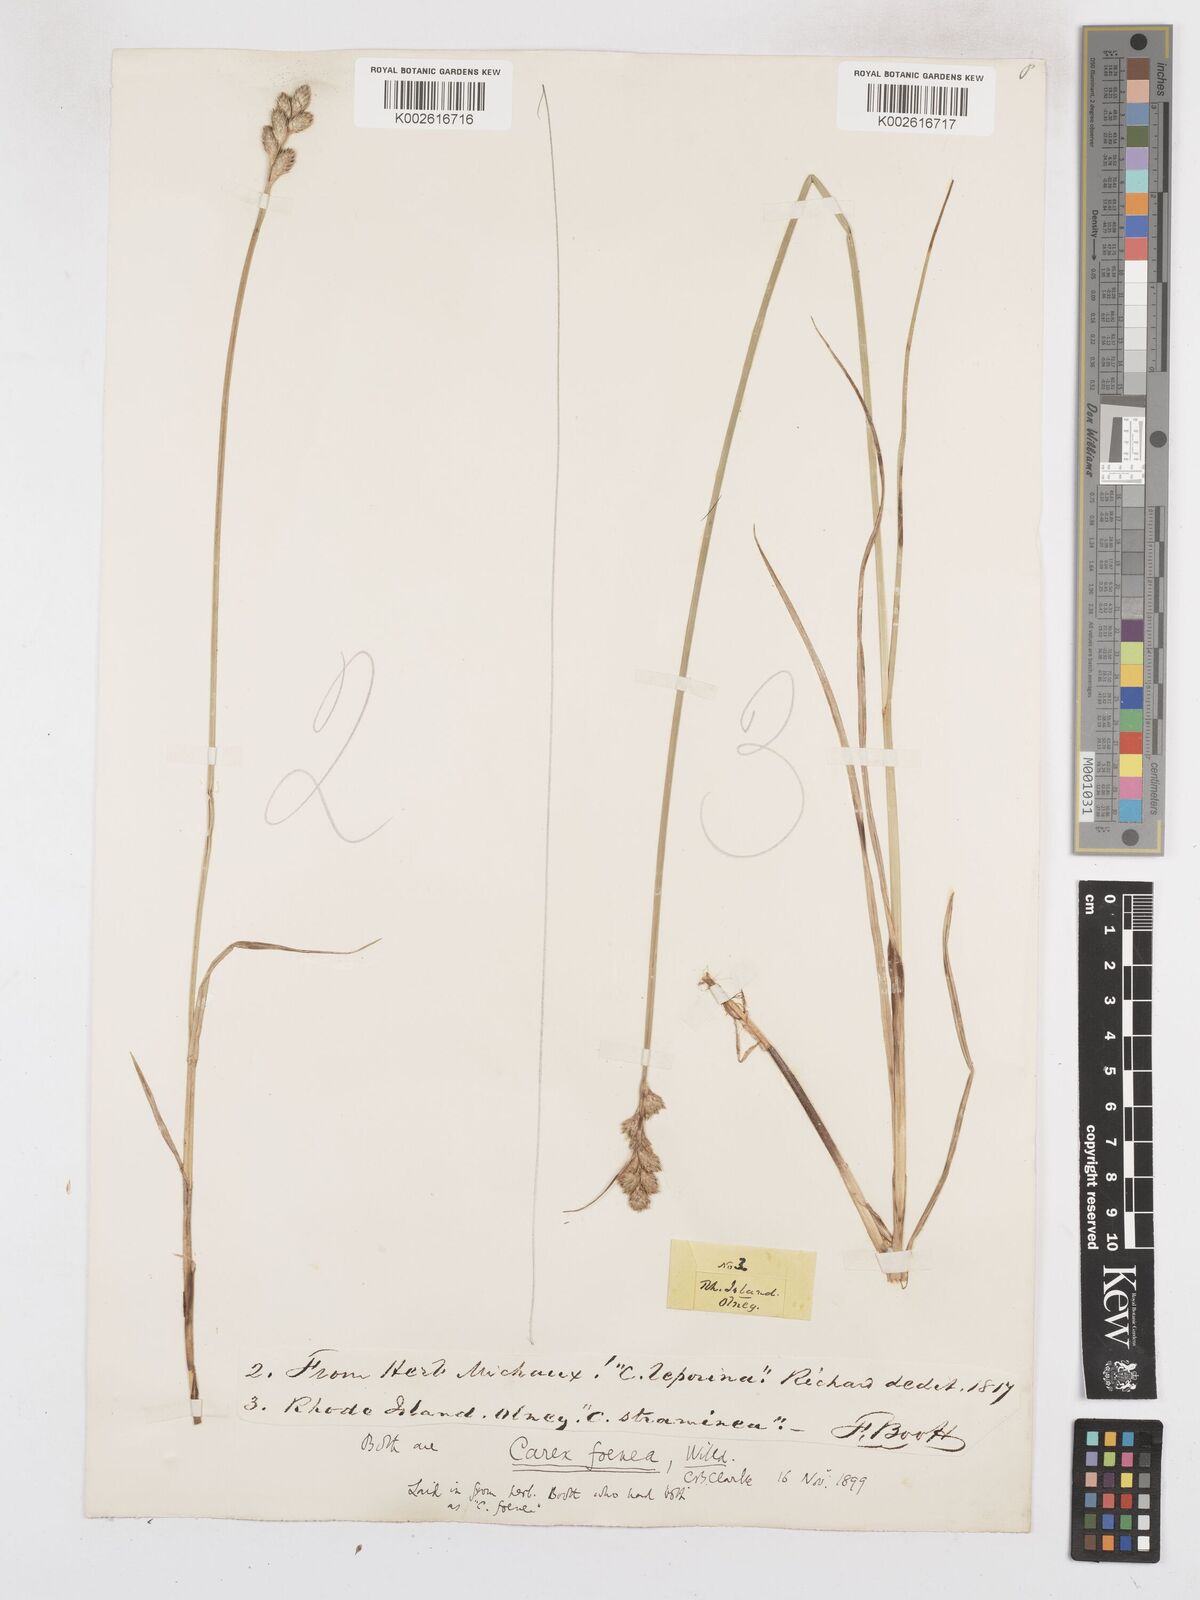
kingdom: Plantae
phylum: Tracheophyta
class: Liliopsida
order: Poales
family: Cyperaceae
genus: Carex
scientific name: Carex argyrantha
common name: Silvery-flowered sedge
